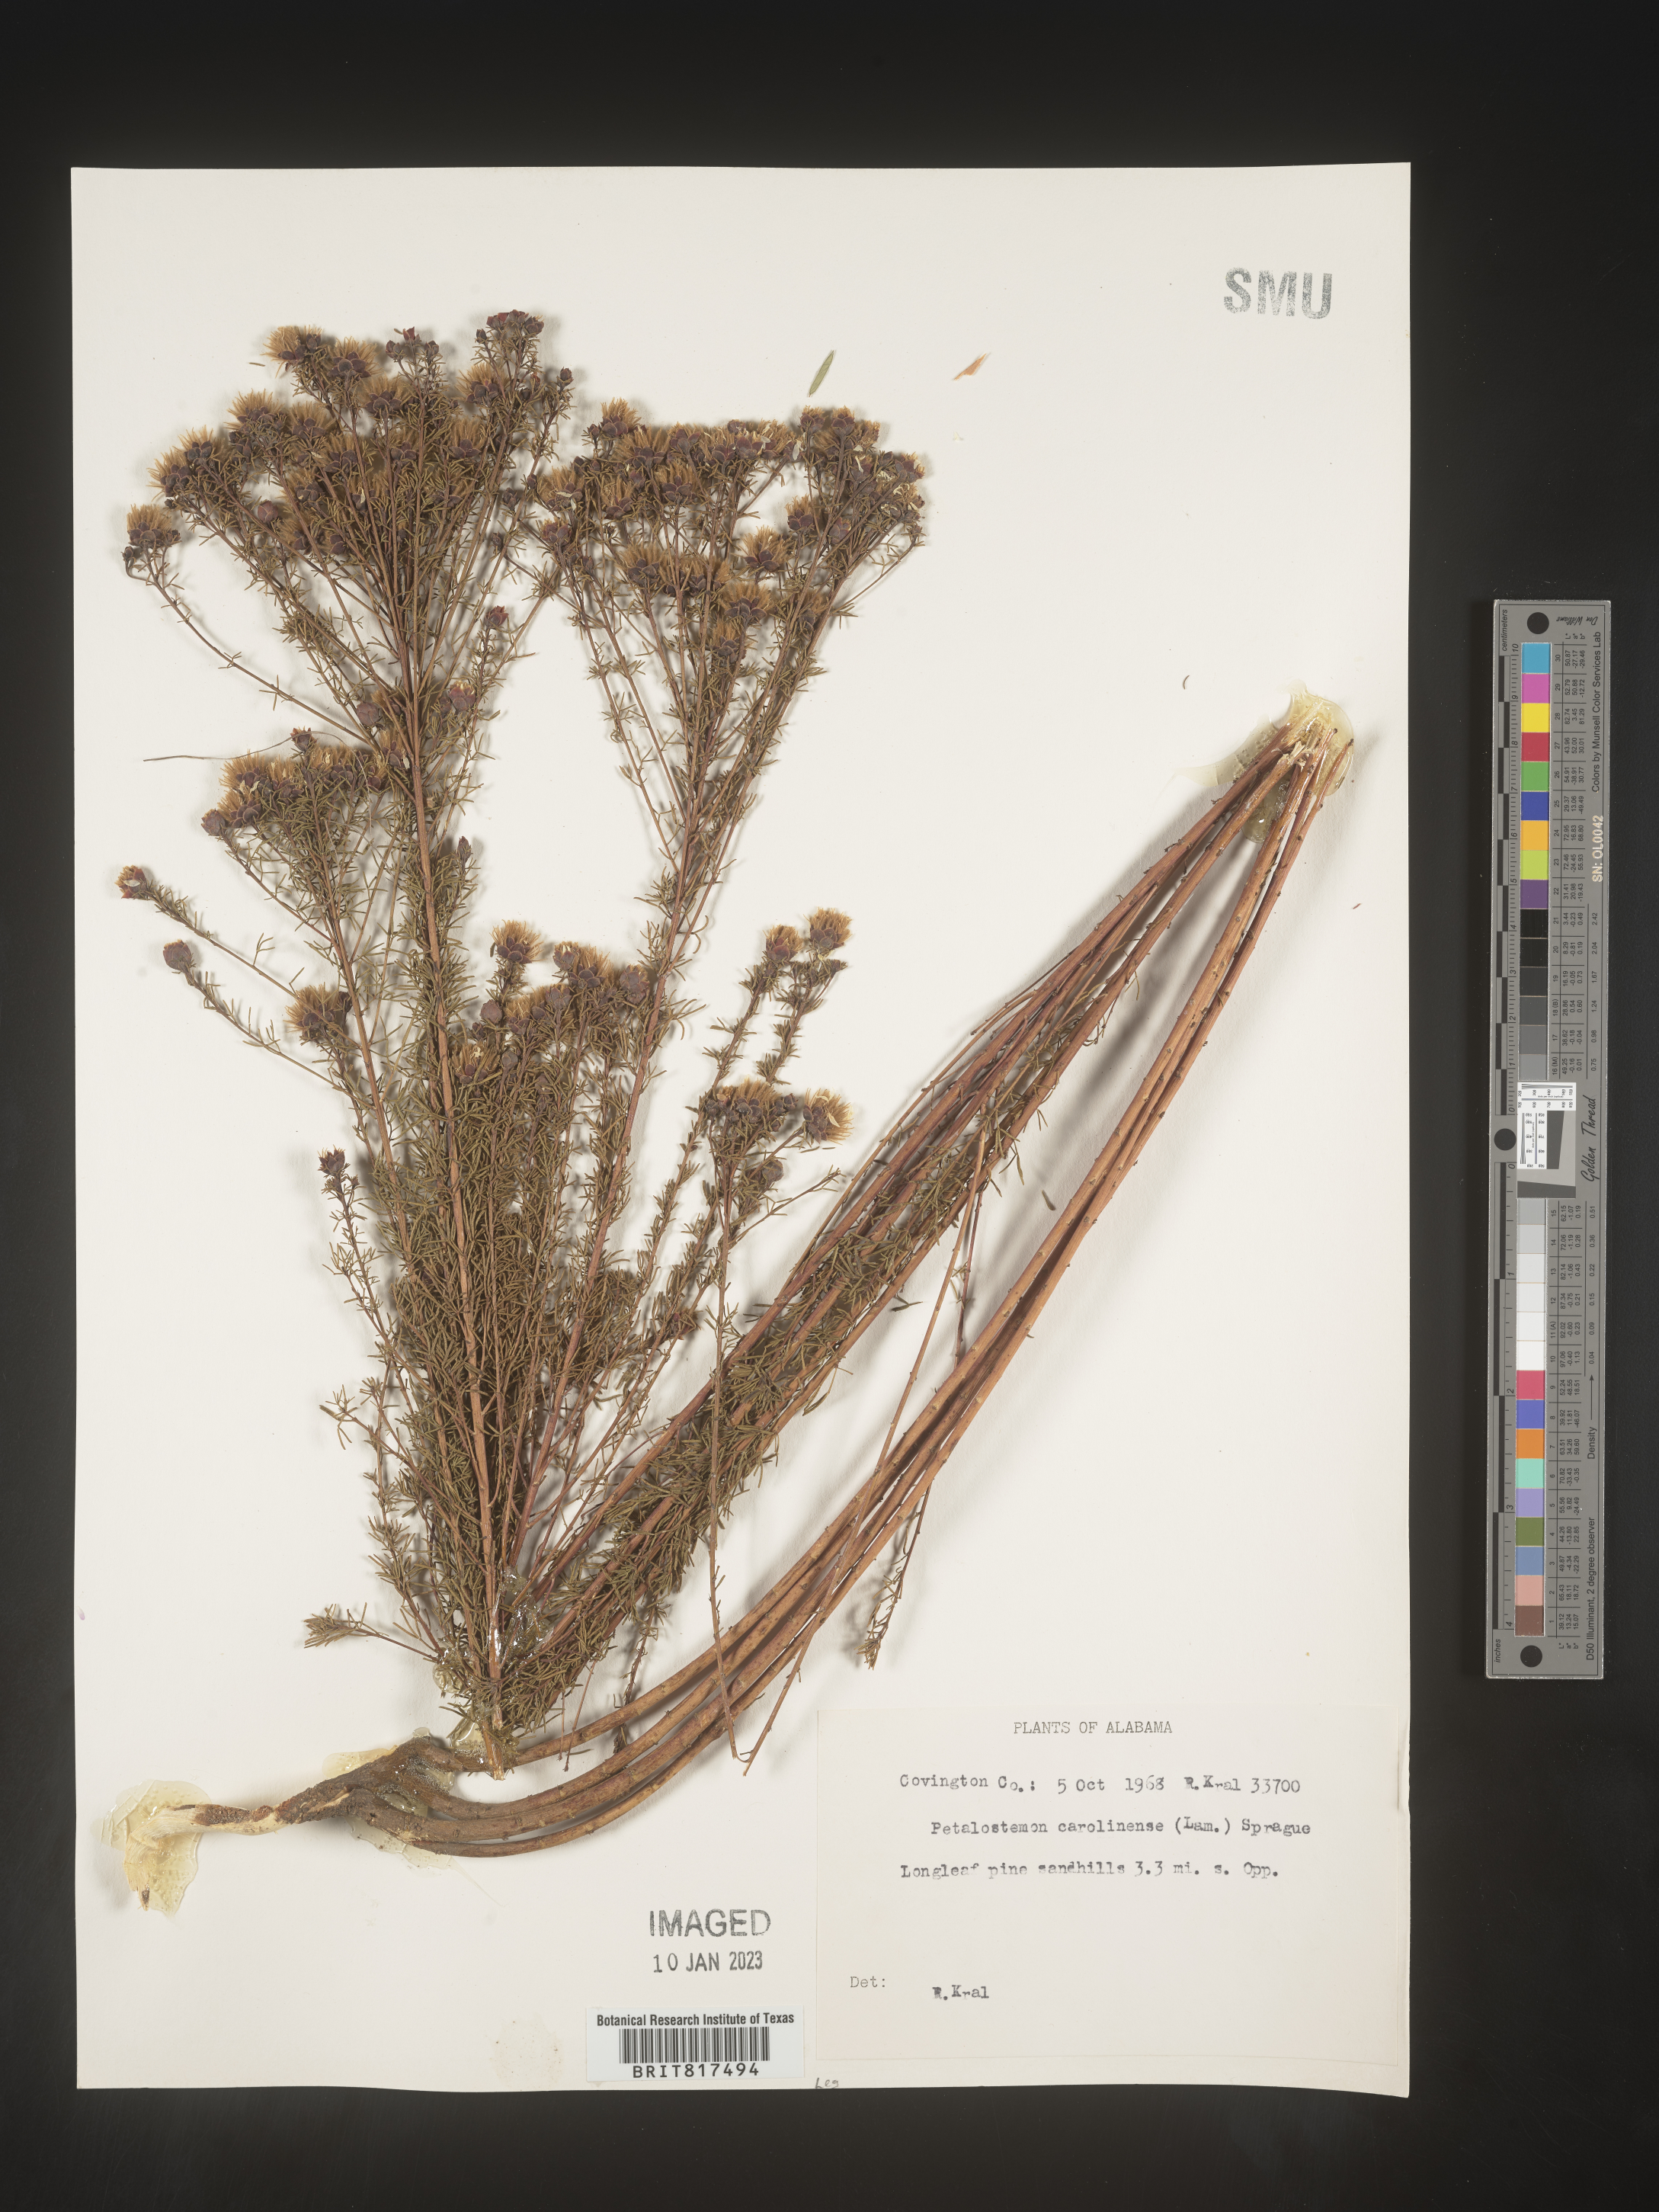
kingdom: Plantae
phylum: Tracheophyta
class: Magnoliopsida
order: Fabales
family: Fabaceae
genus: Dalea
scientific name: Dalea
